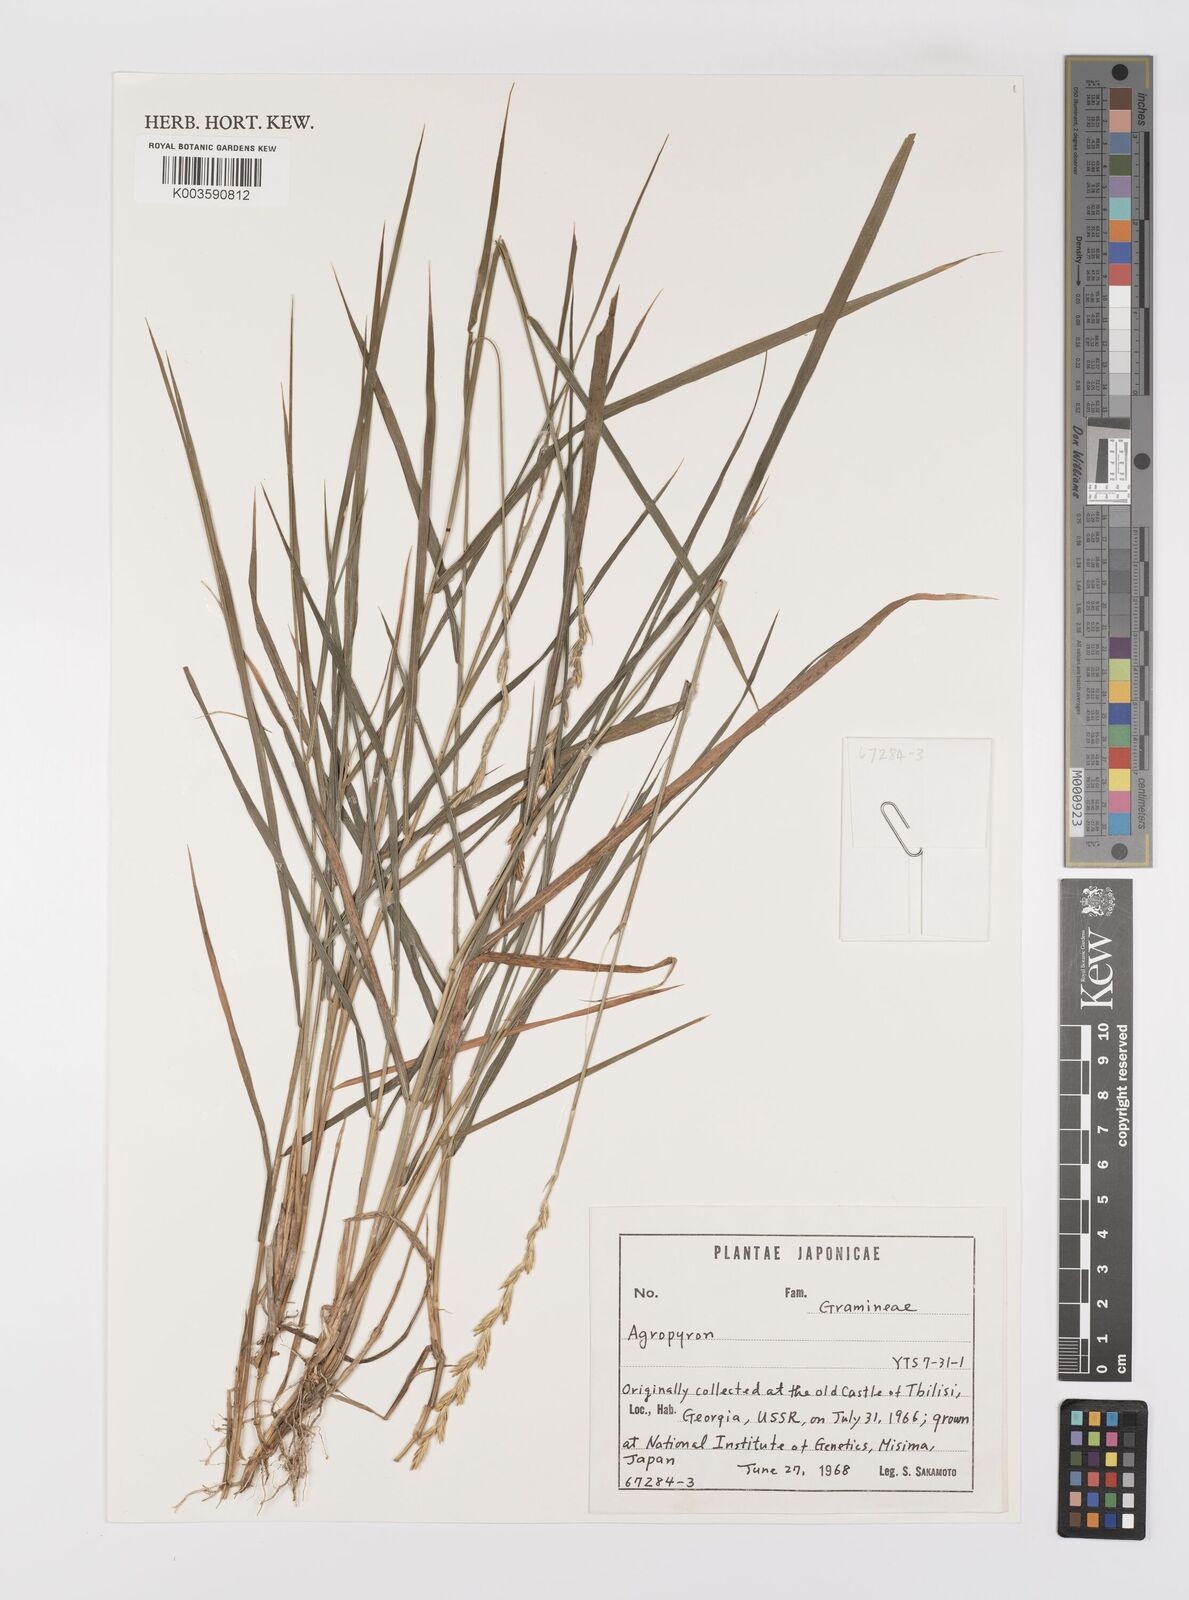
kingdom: Plantae
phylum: Tracheophyta
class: Liliopsida
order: Poales
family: Poaceae
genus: Elymus
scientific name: Elymus
